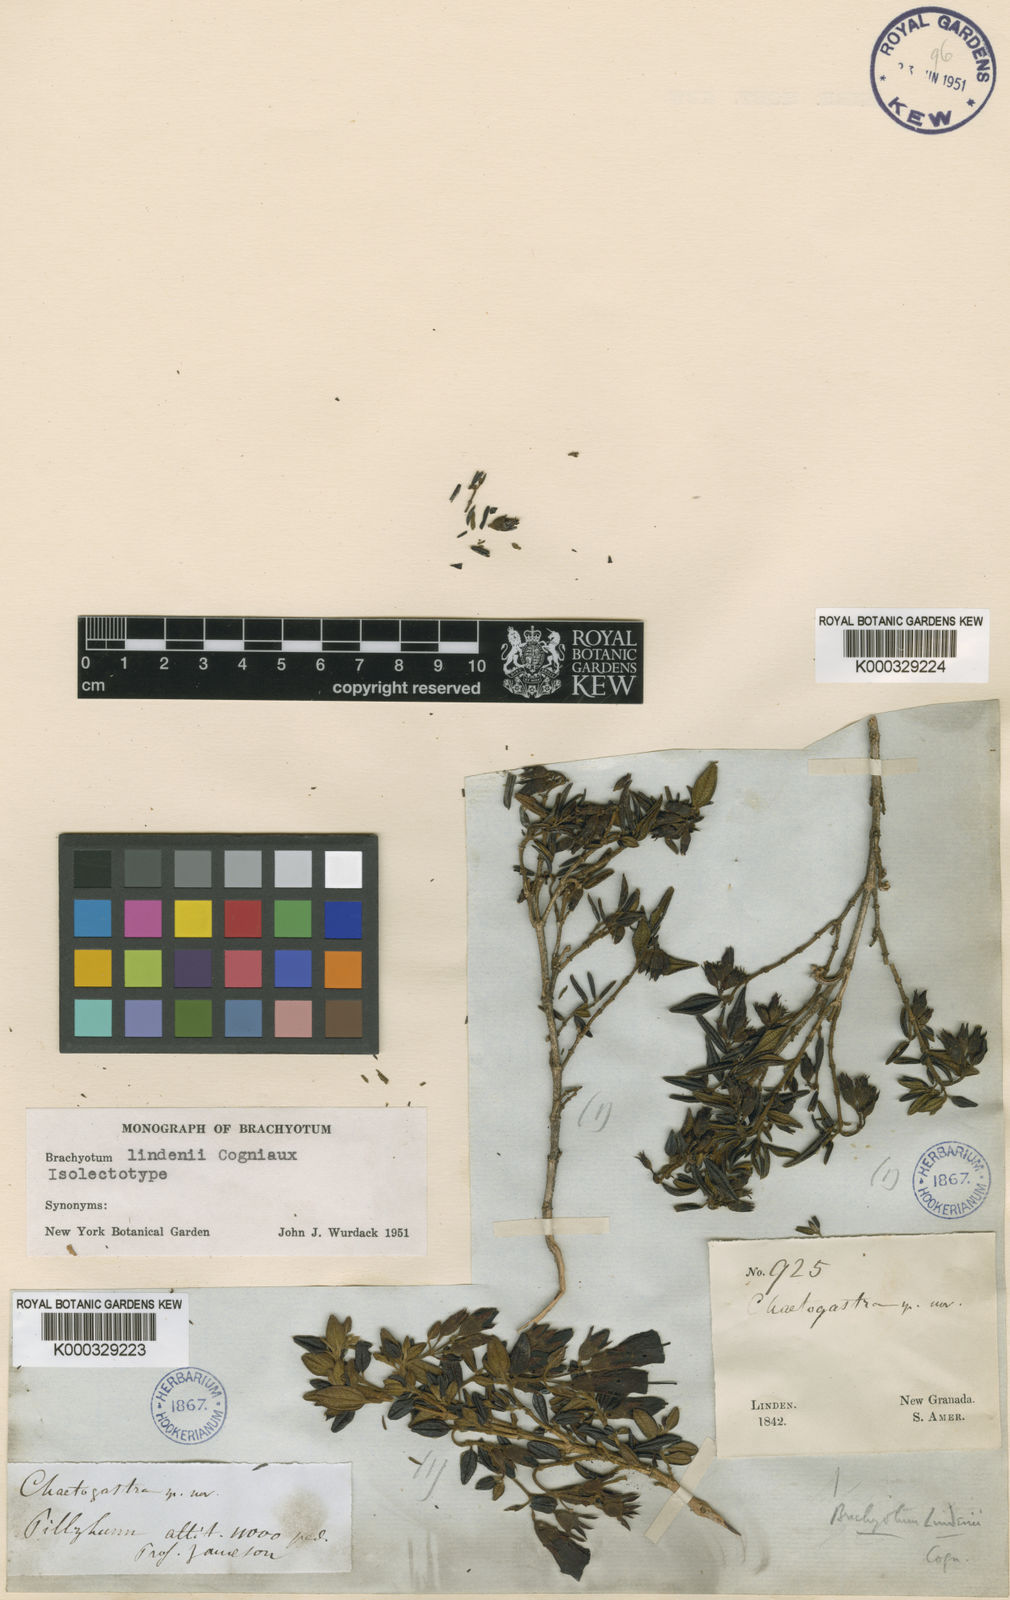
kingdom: Plantae
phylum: Tracheophyta
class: Magnoliopsida
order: Myrtales
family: Melastomataceae
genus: Brachyotum
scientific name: Brachyotum lindenii
